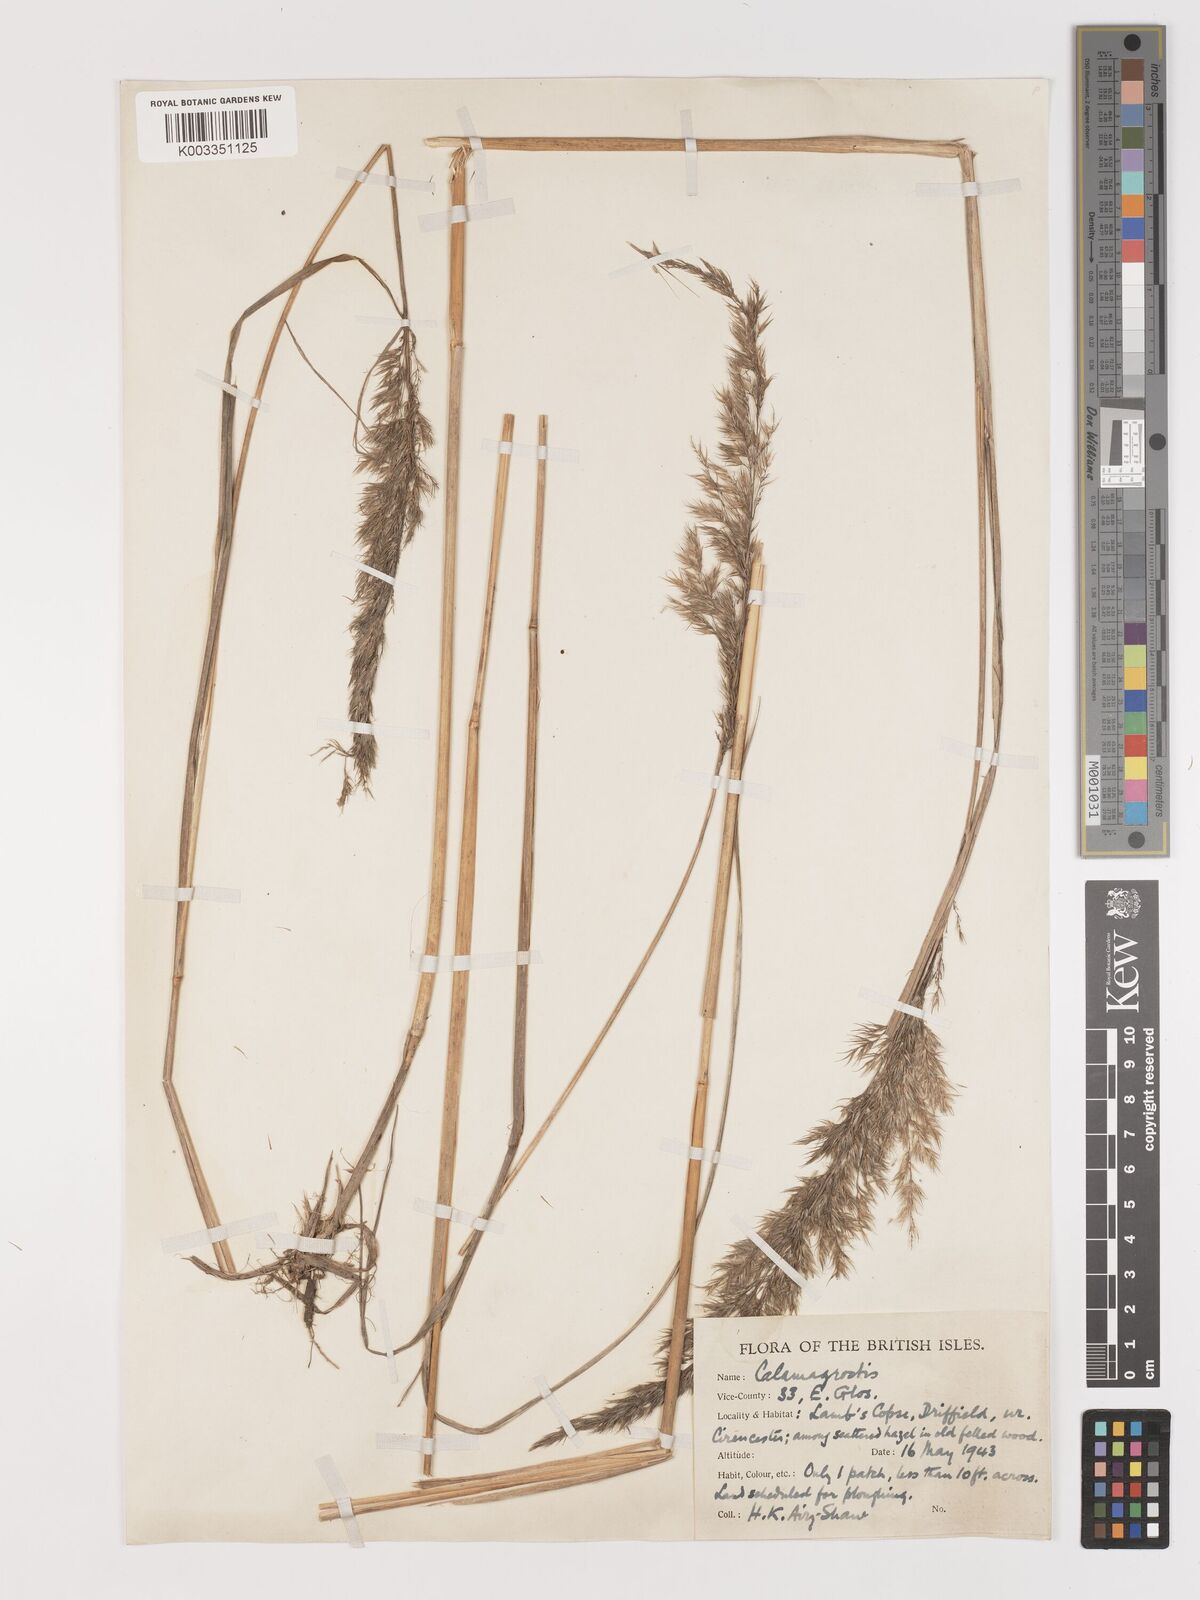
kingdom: Plantae
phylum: Tracheophyta
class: Liliopsida
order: Poales
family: Poaceae
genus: Calamagrostis
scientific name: Calamagrostis
